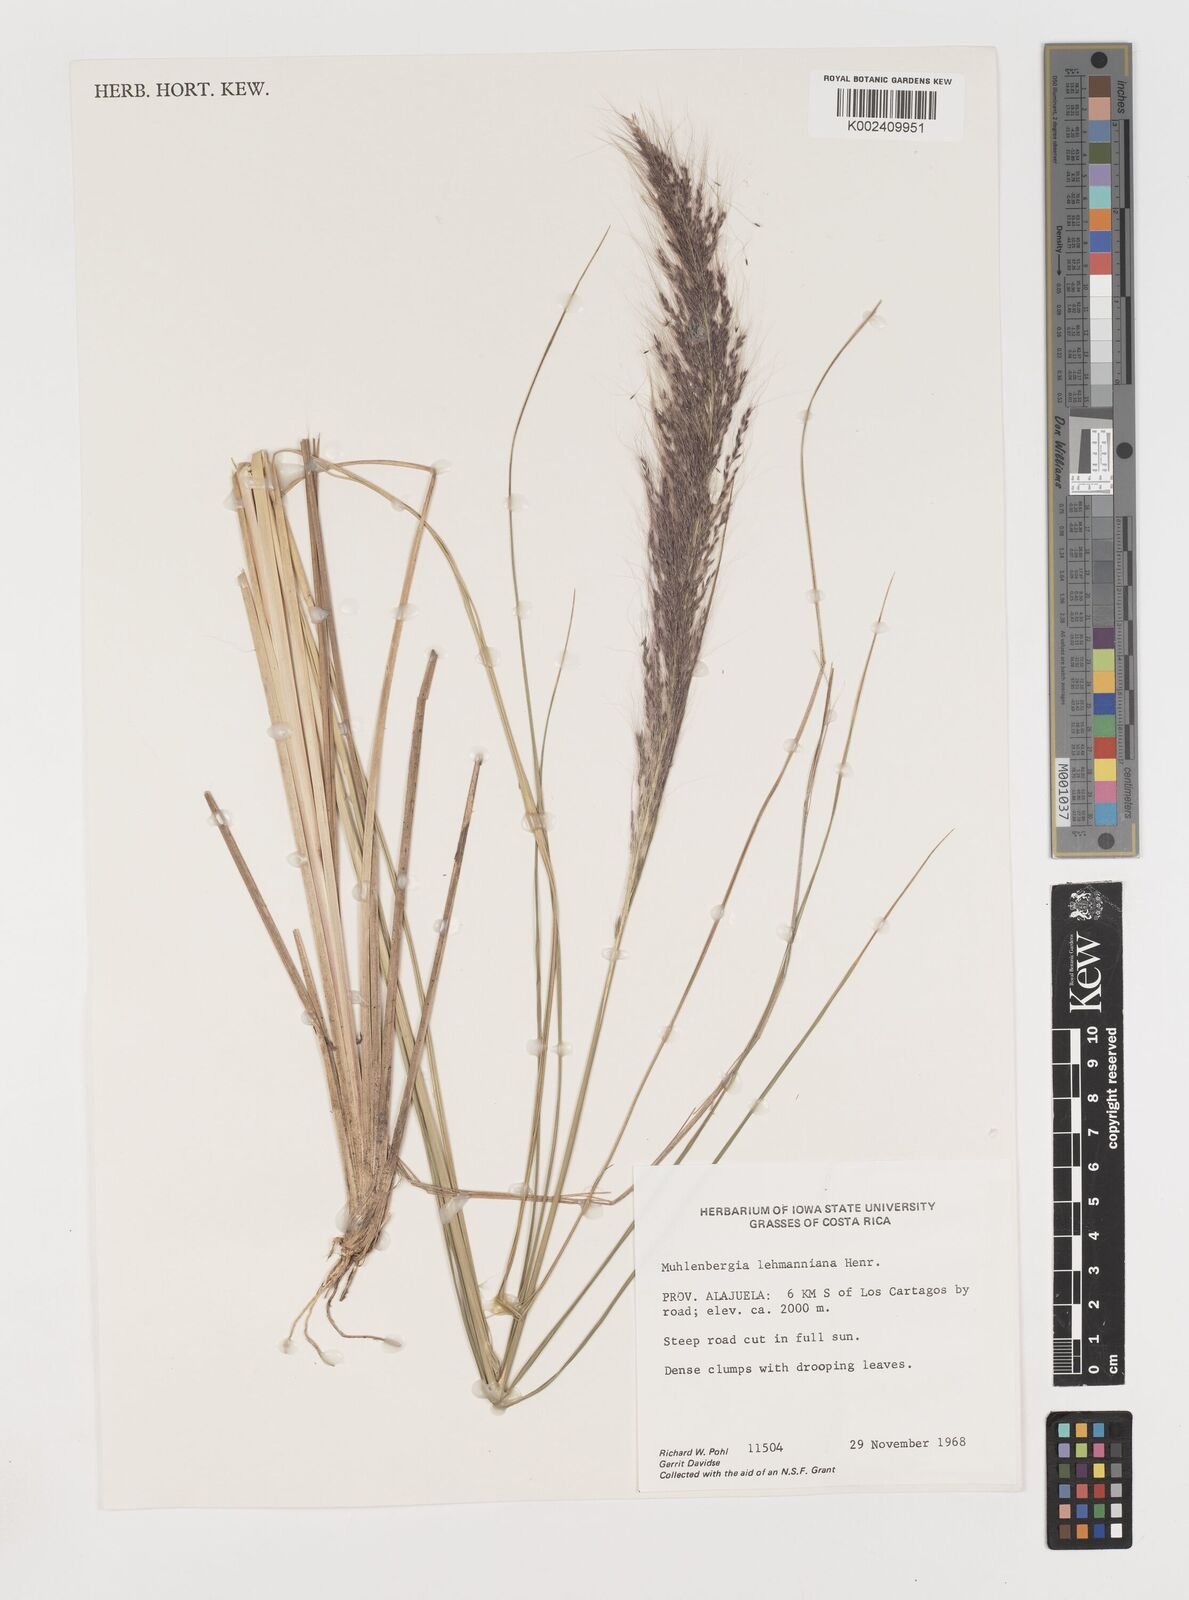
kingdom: Plantae
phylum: Tracheophyta
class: Liliopsida
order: Poales
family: Poaceae
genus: Muhlenbergia
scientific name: Muhlenbergia lehmanniana
